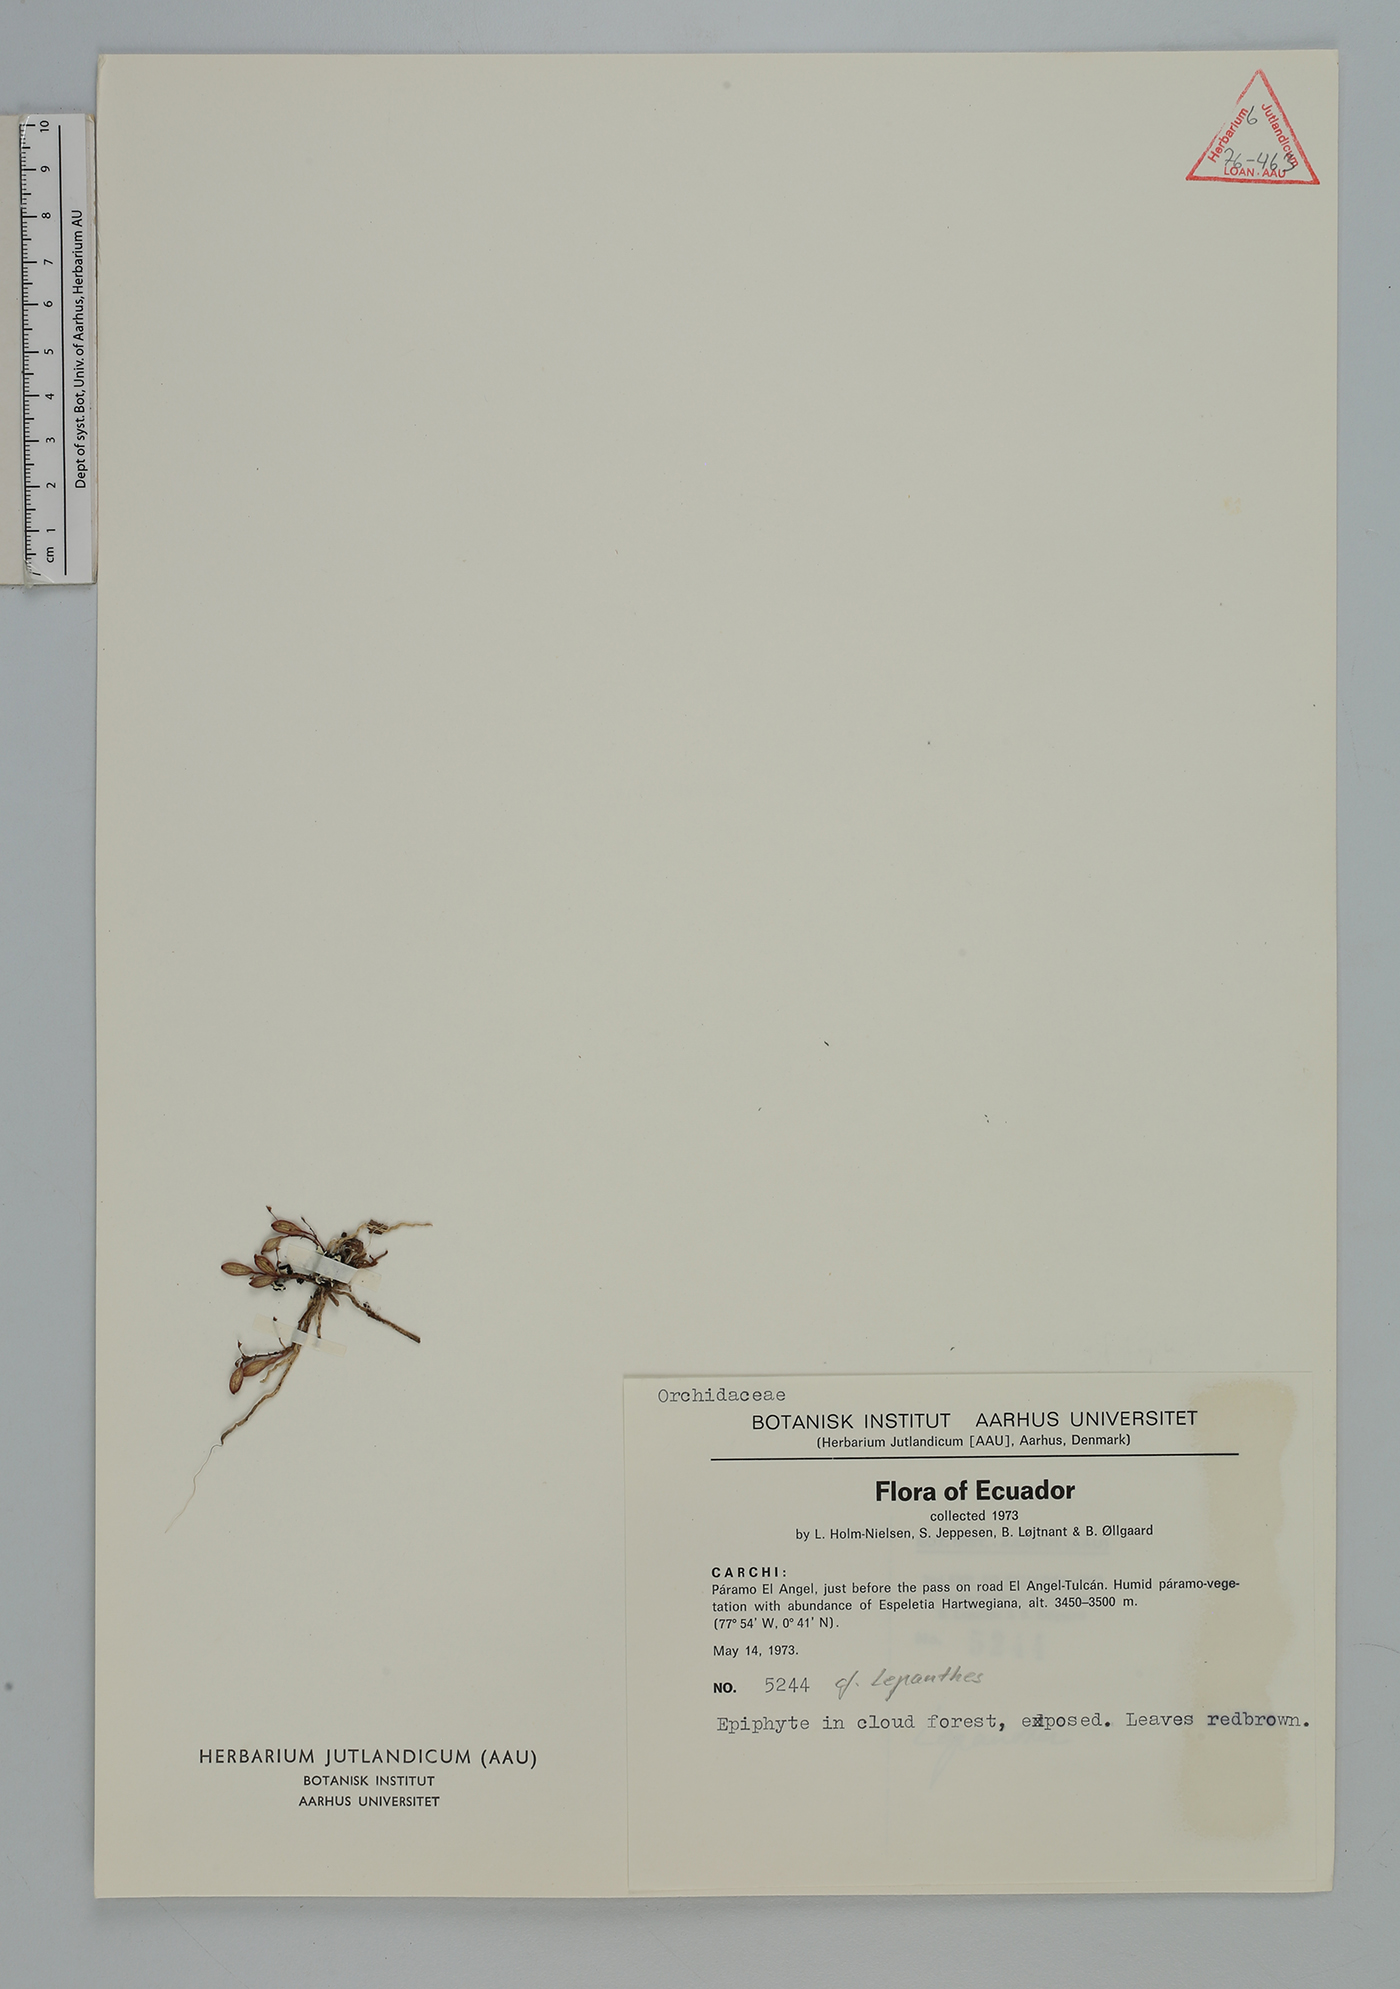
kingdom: Plantae
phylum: Tracheophyta
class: Liliopsida
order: Asparagales
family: Orchidaceae
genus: Lepanthes
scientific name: Lepanthes
